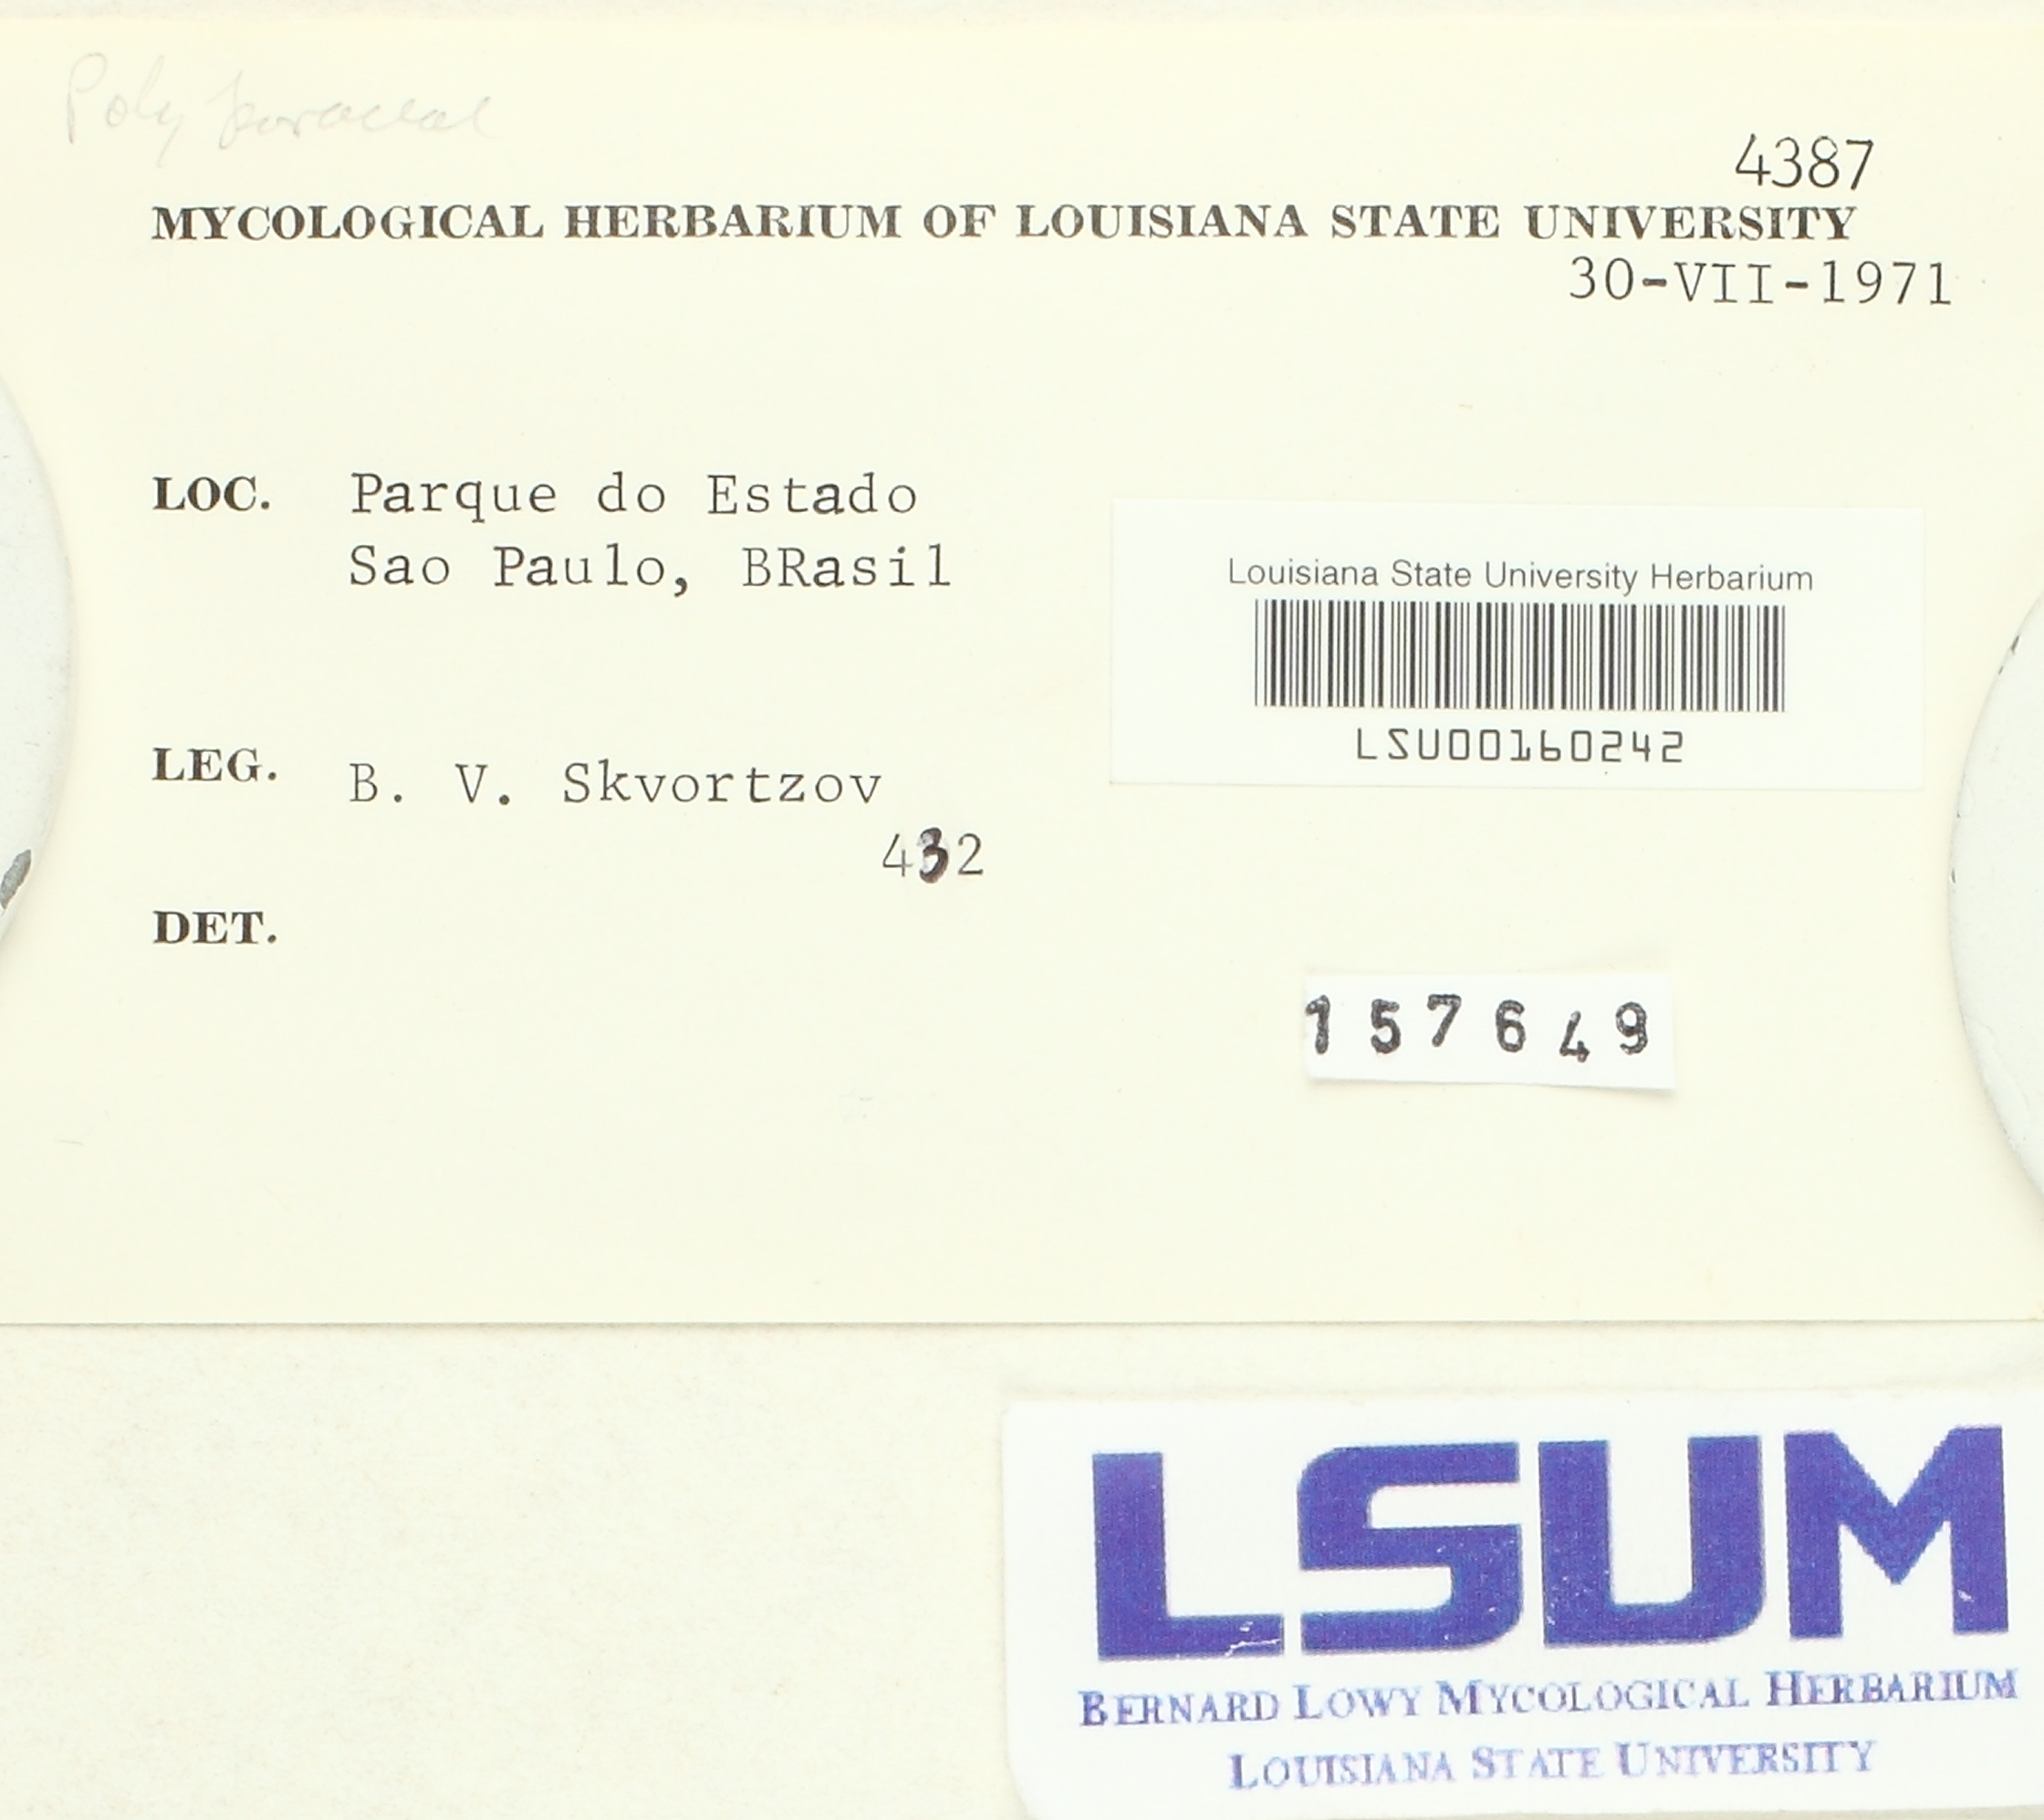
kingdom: Fungi
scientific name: Fungi
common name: Fungi
